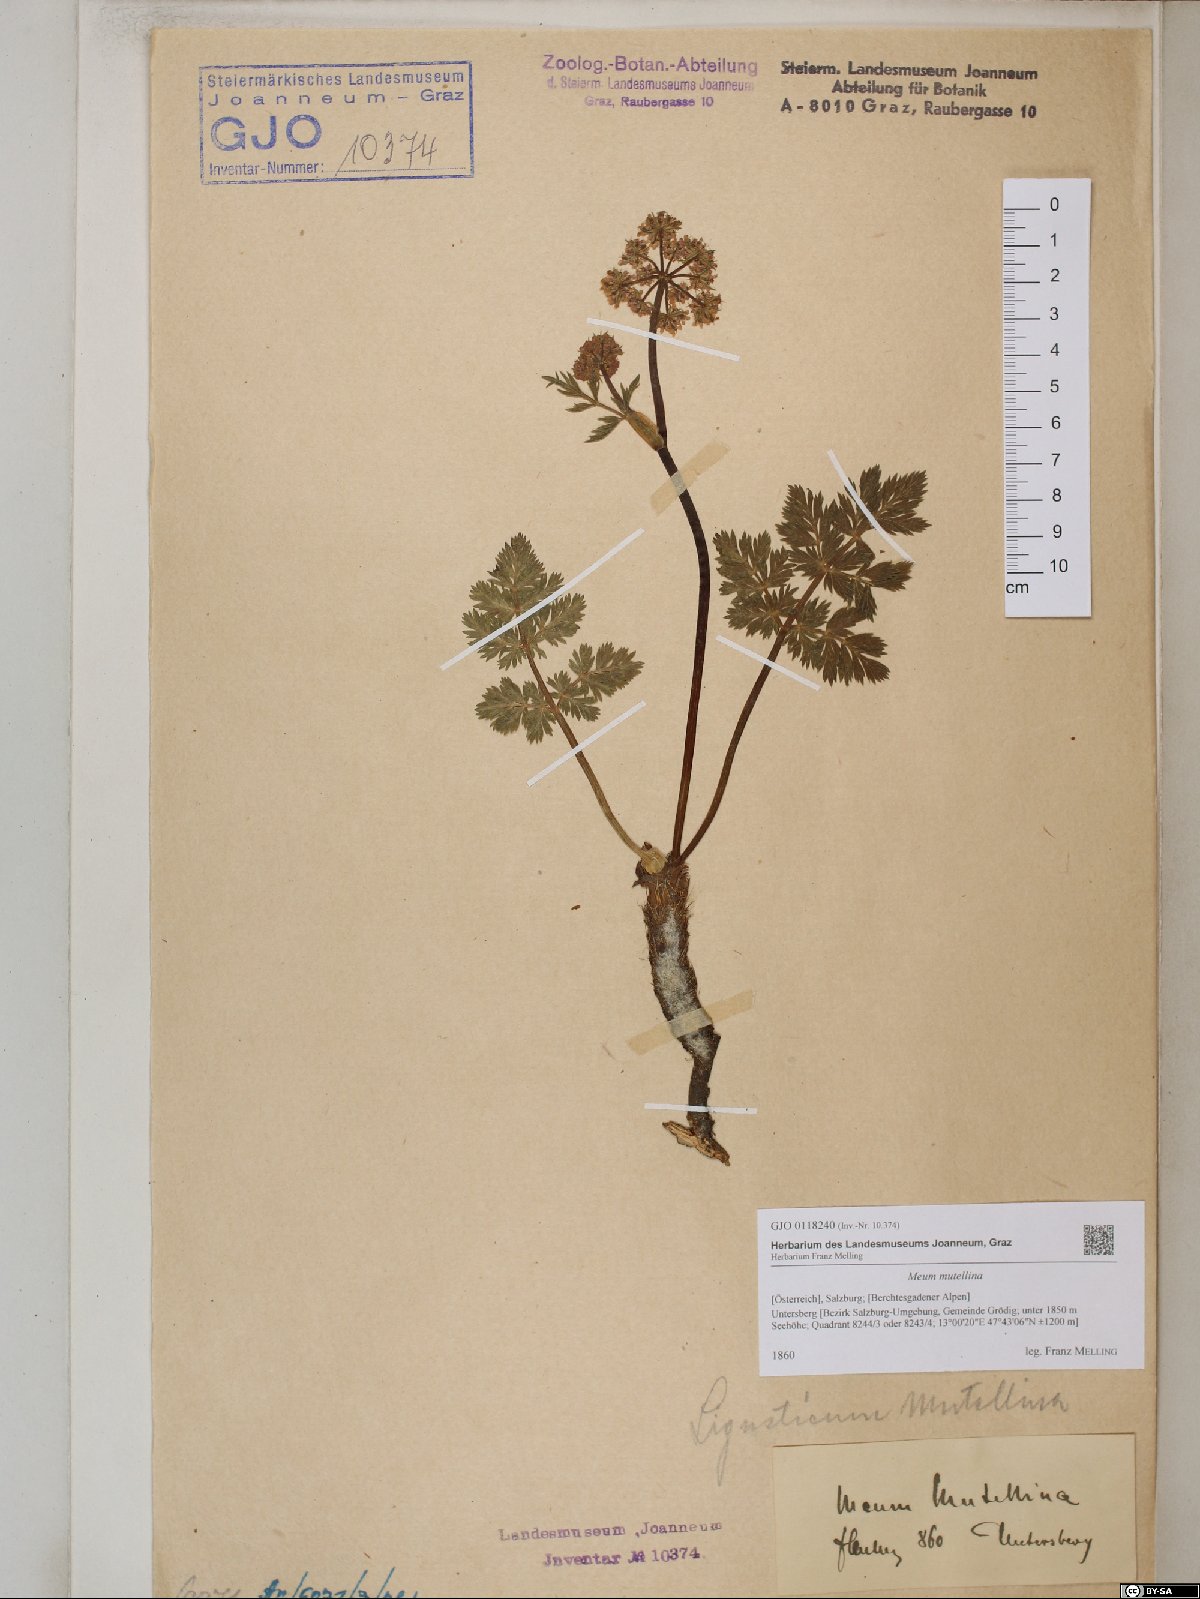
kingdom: Plantae
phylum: Tracheophyta
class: Magnoliopsida
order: Apiales
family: Apiaceae
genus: Mutellina
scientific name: Mutellina adonidifolia
